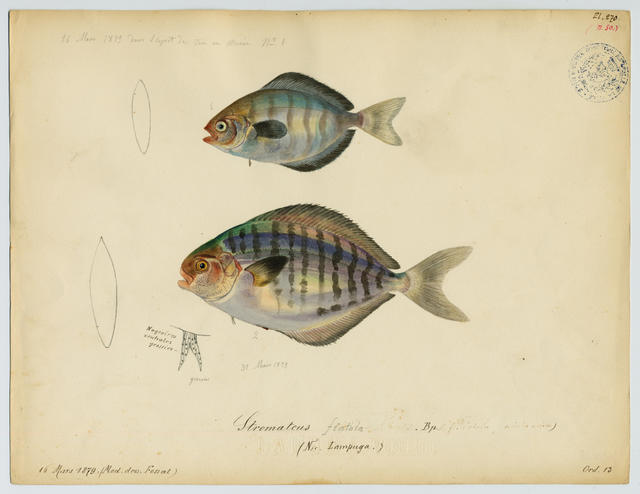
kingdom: Animalia
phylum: Chordata
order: Perciformes
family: Stromateidae
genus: Stromateus
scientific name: Stromateus fiatola
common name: Blue butterfish
